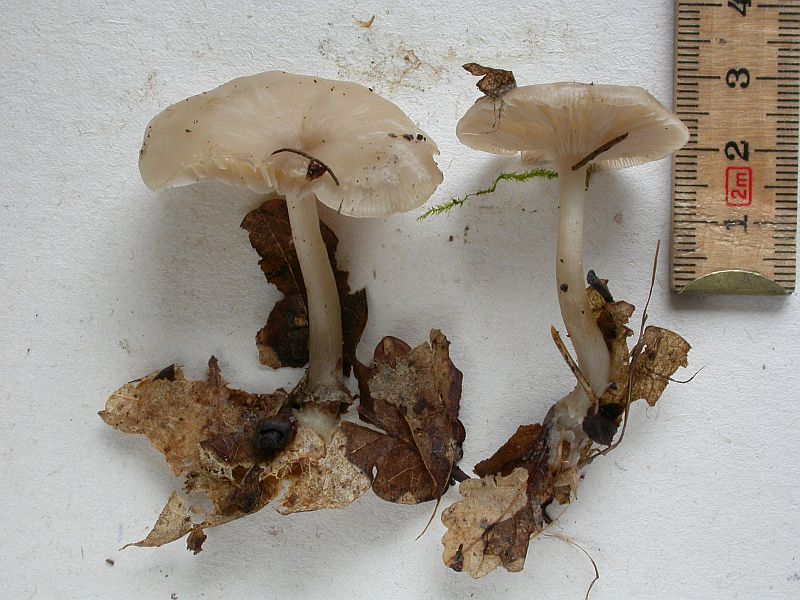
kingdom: Fungi
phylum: Basidiomycota
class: Agaricomycetes
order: Agaricales
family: Tricholomataceae
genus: Clitocybe
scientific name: Clitocybe metachroa
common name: grå tragthat
